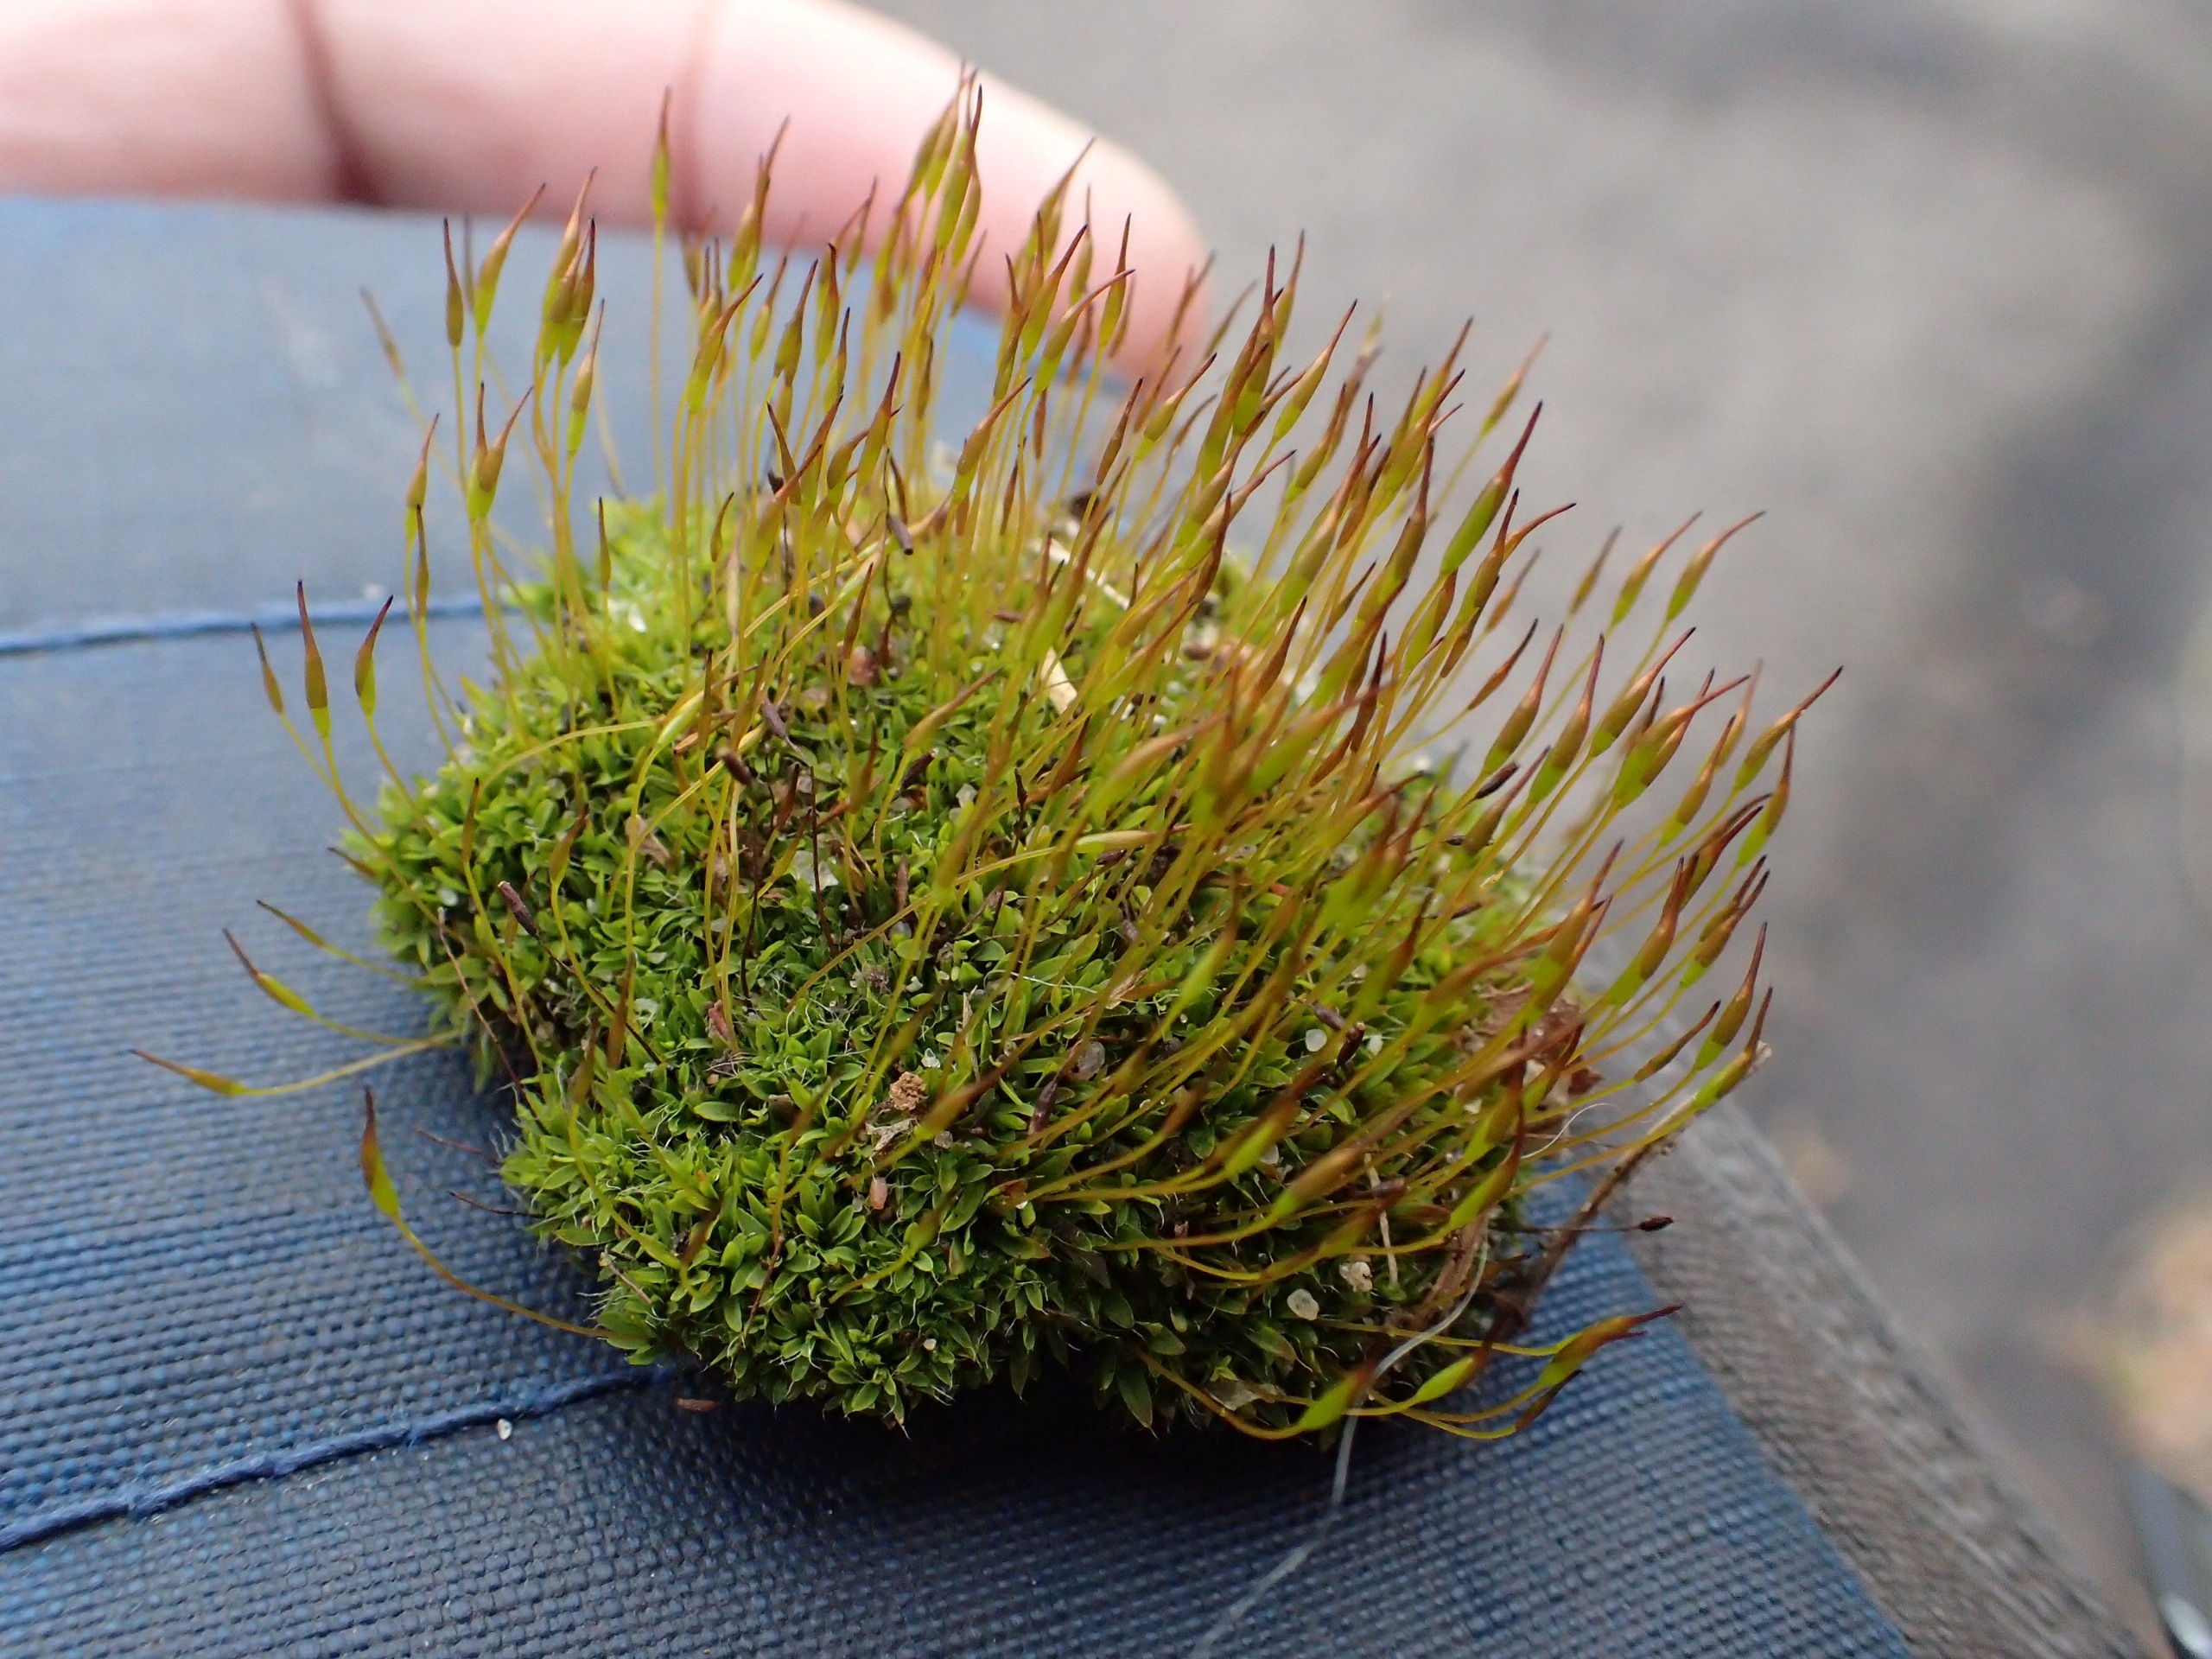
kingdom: Plantae
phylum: Bryophyta
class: Bryopsida
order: Pottiales
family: Pottiaceae
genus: Tortula
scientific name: Tortula muralis
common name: Mur-snotand
